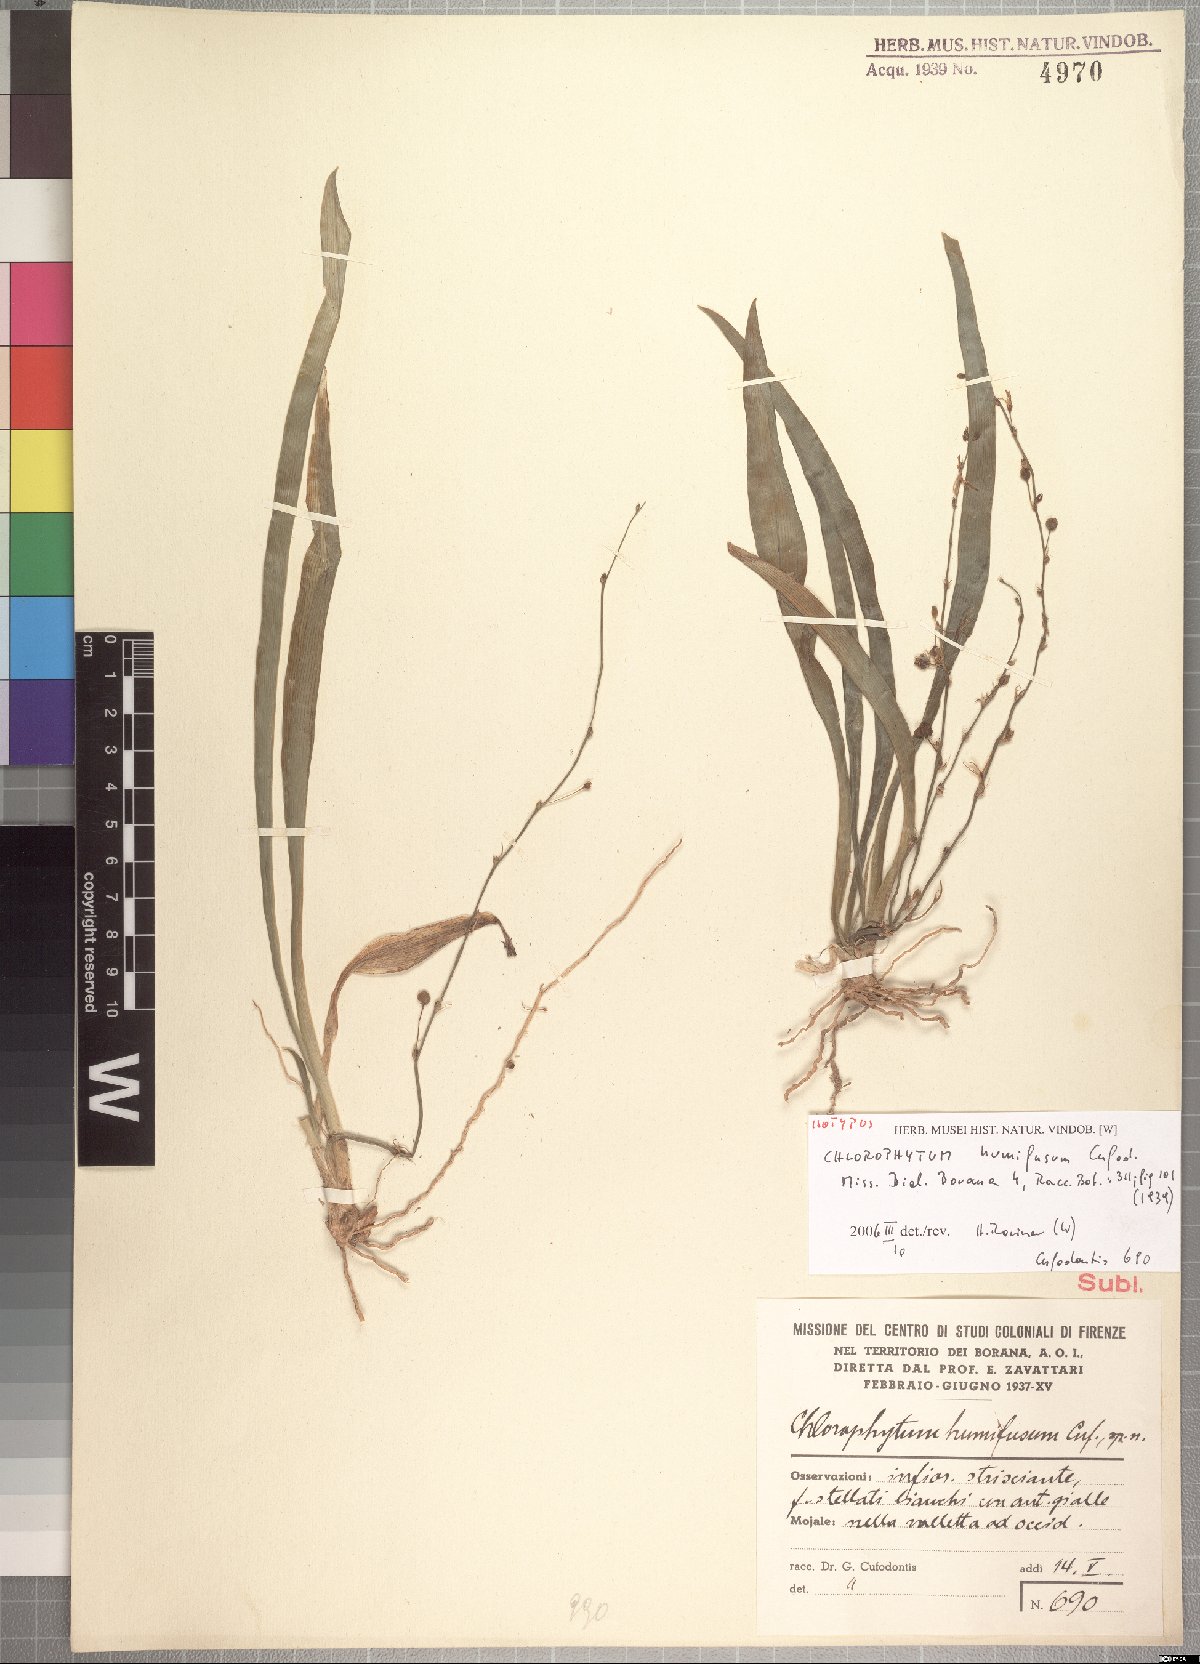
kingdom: Plantae
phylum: Tracheophyta
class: Liliopsida
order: Asparagales
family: Asparagaceae
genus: Chlorophytum
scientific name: Chlorophytum humifusum
